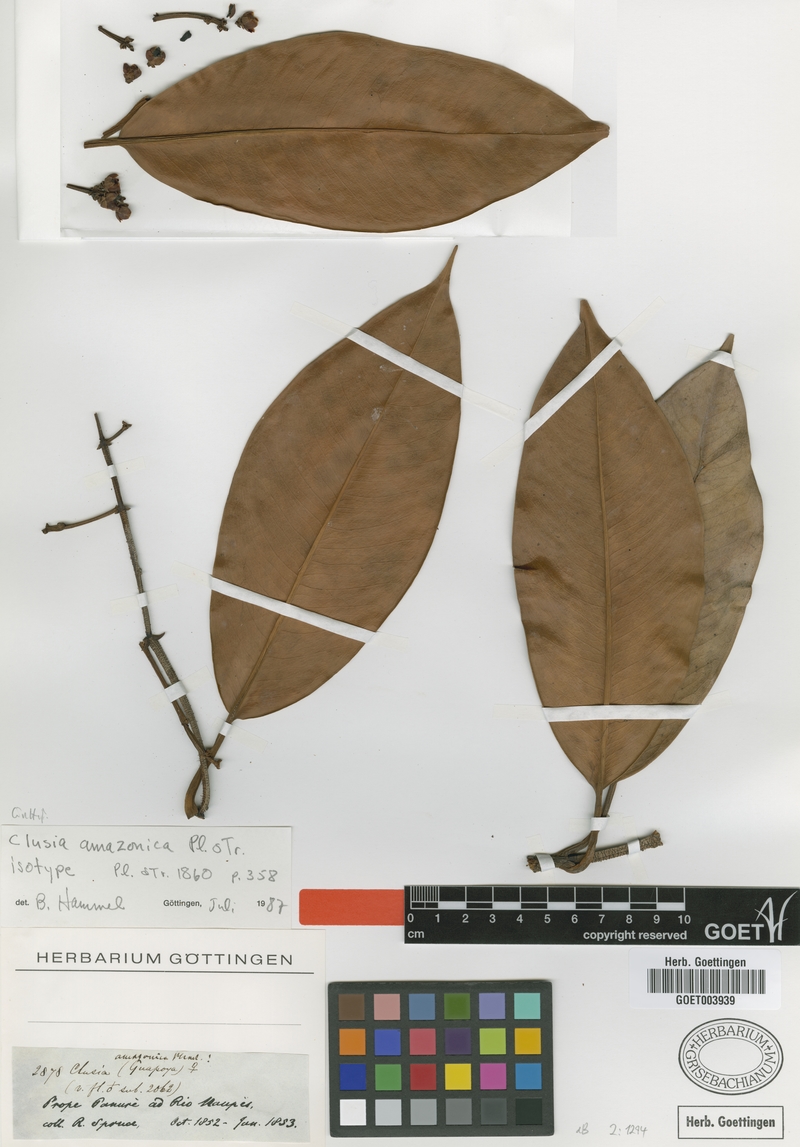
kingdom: Plantae
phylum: Tracheophyta
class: Magnoliopsida
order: Malpighiales
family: Clusiaceae
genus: Clusia
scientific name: Clusia amazonica
